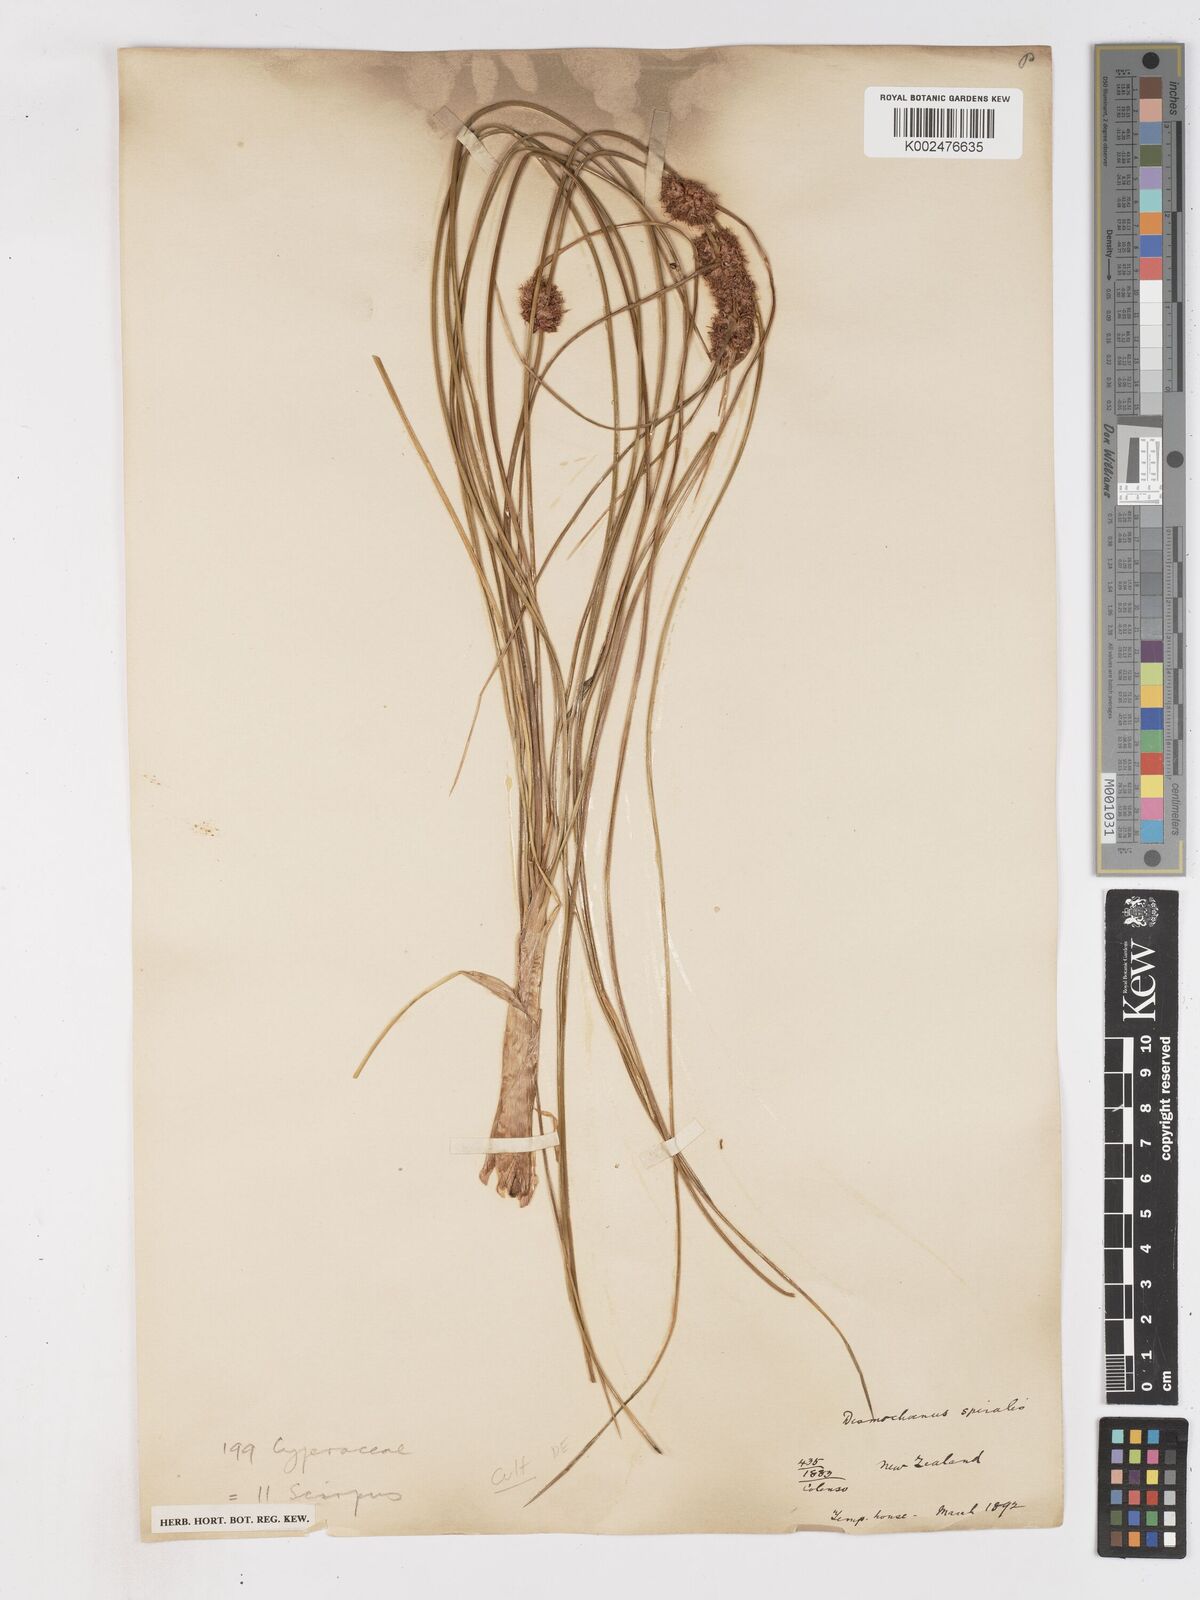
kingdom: Plantae
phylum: Tracheophyta
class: Liliopsida
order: Poales
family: Cyperaceae
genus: Ficinia
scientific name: Ficinia spiralis
